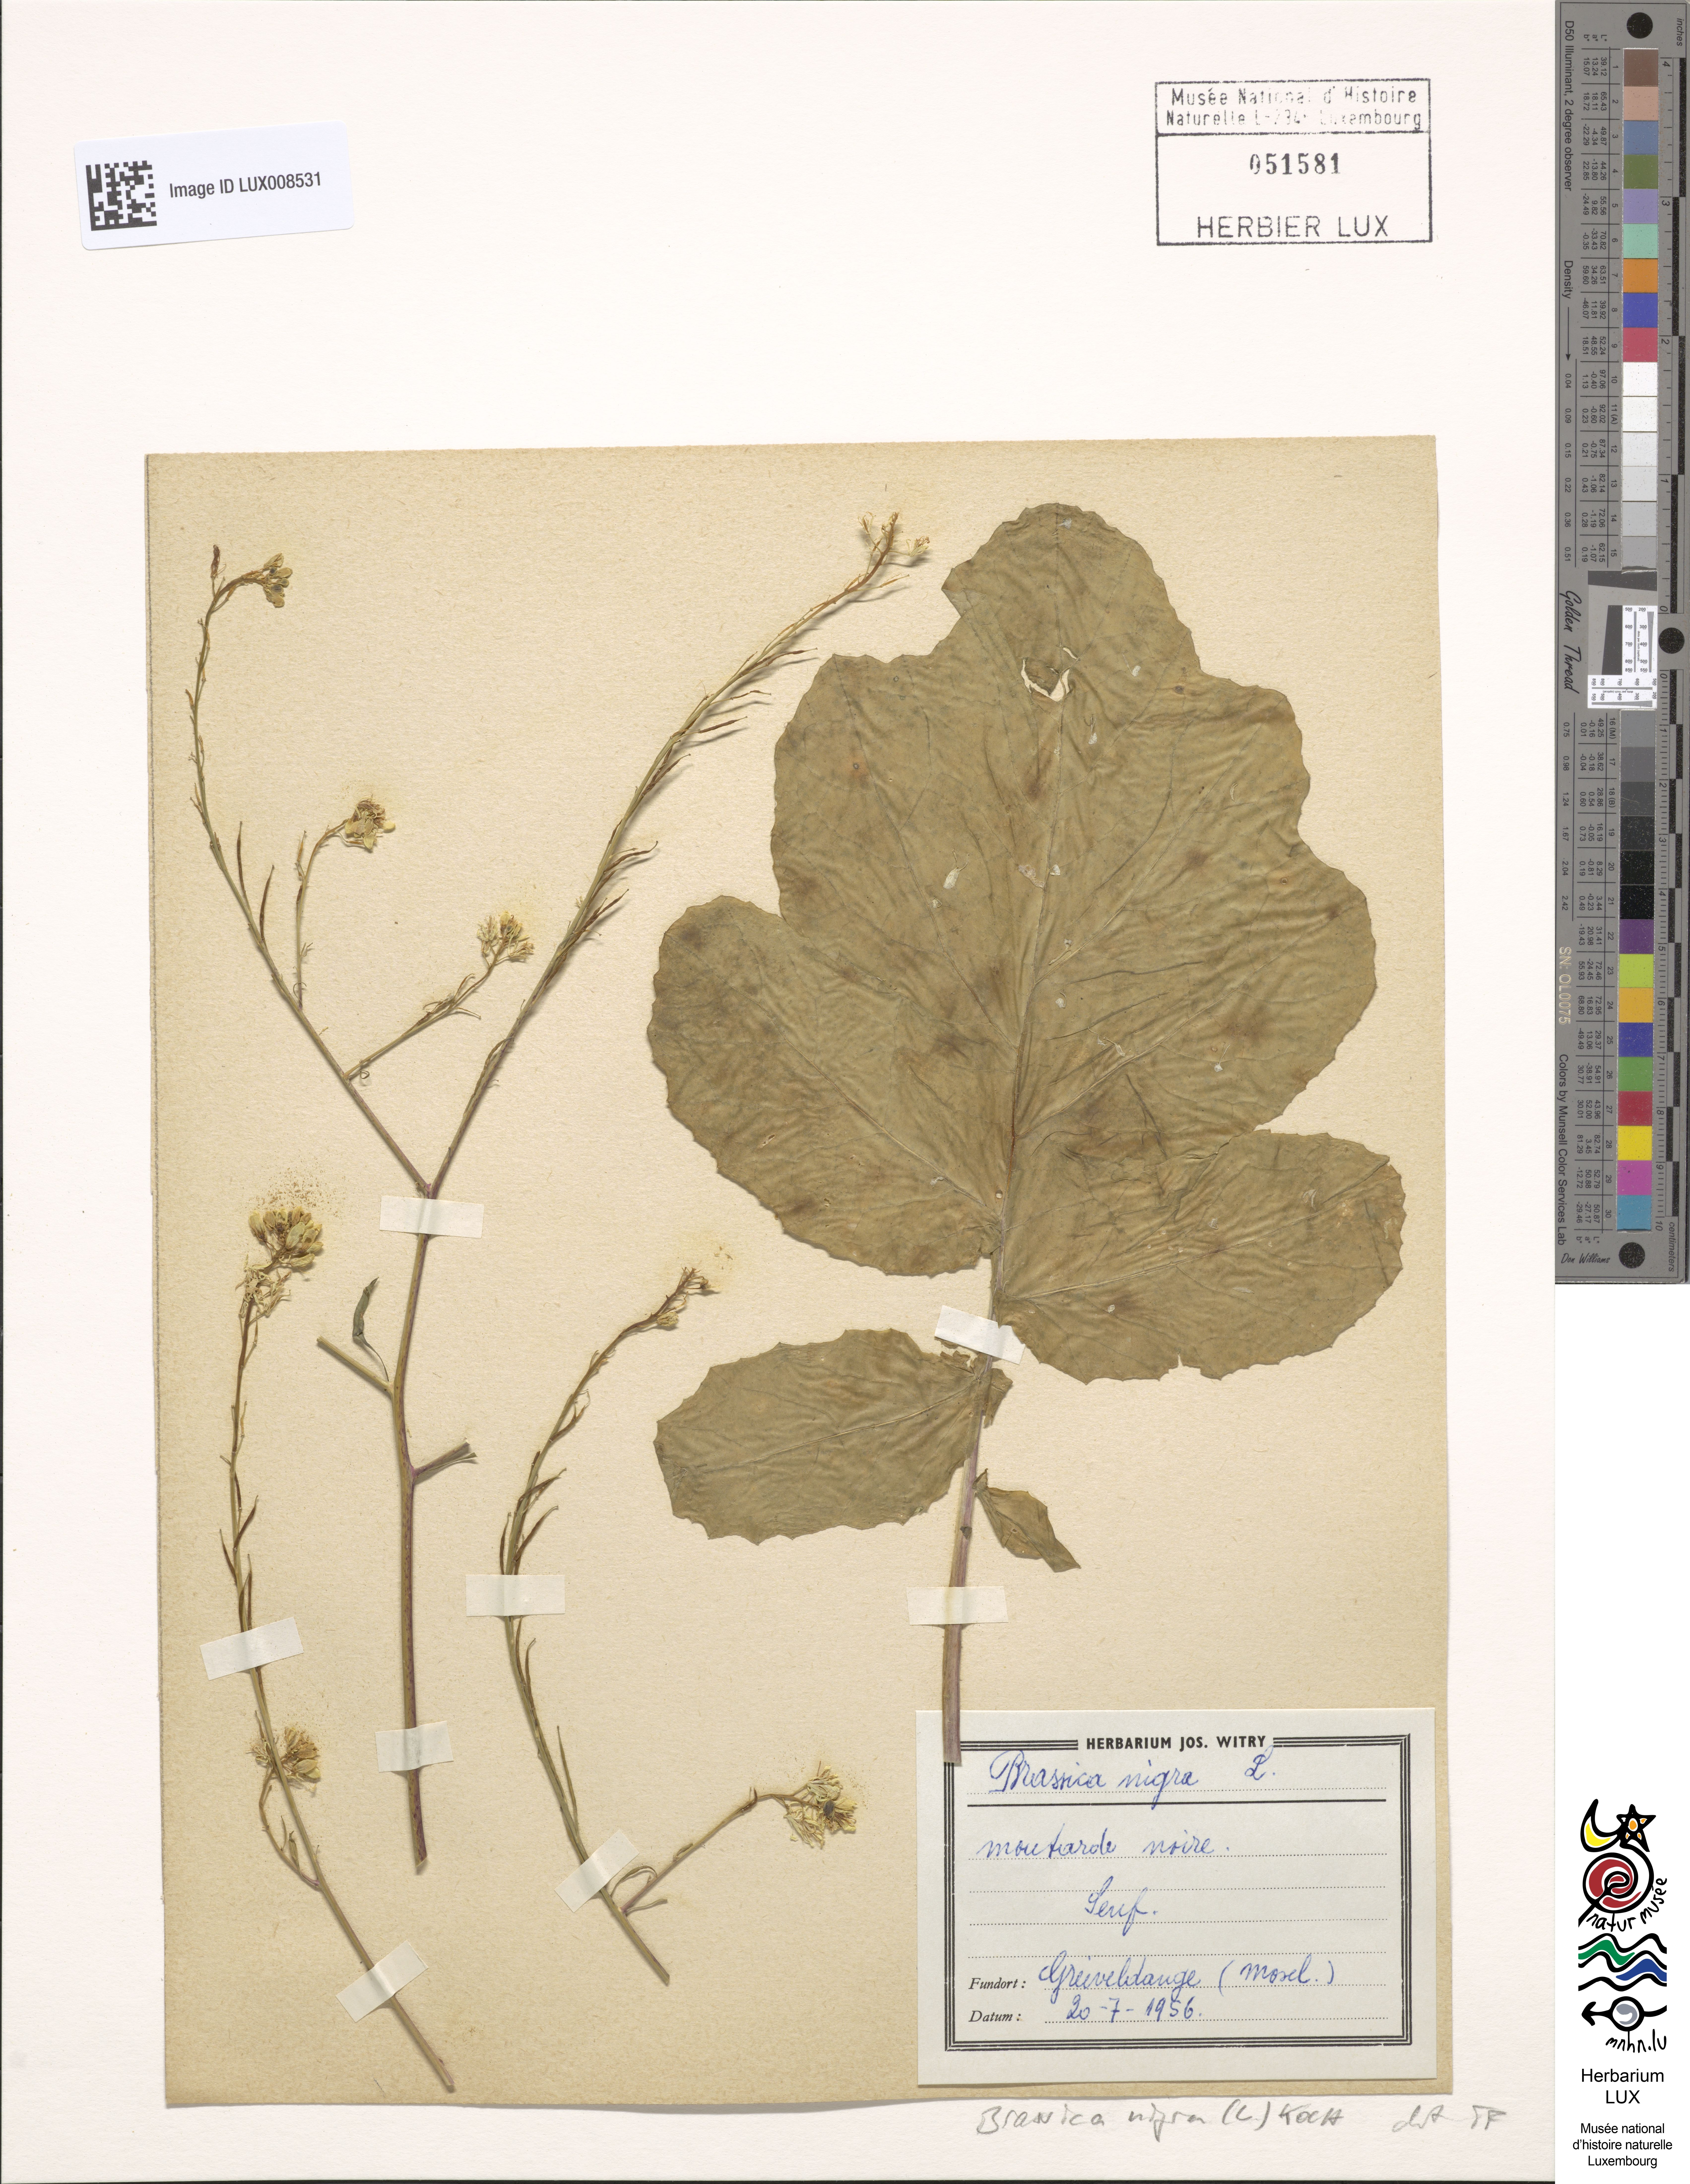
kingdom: Plantae
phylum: Tracheophyta
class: Magnoliopsida
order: Brassicales
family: Brassicaceae
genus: Brassica
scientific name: Brassica nigra
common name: Black mustard
